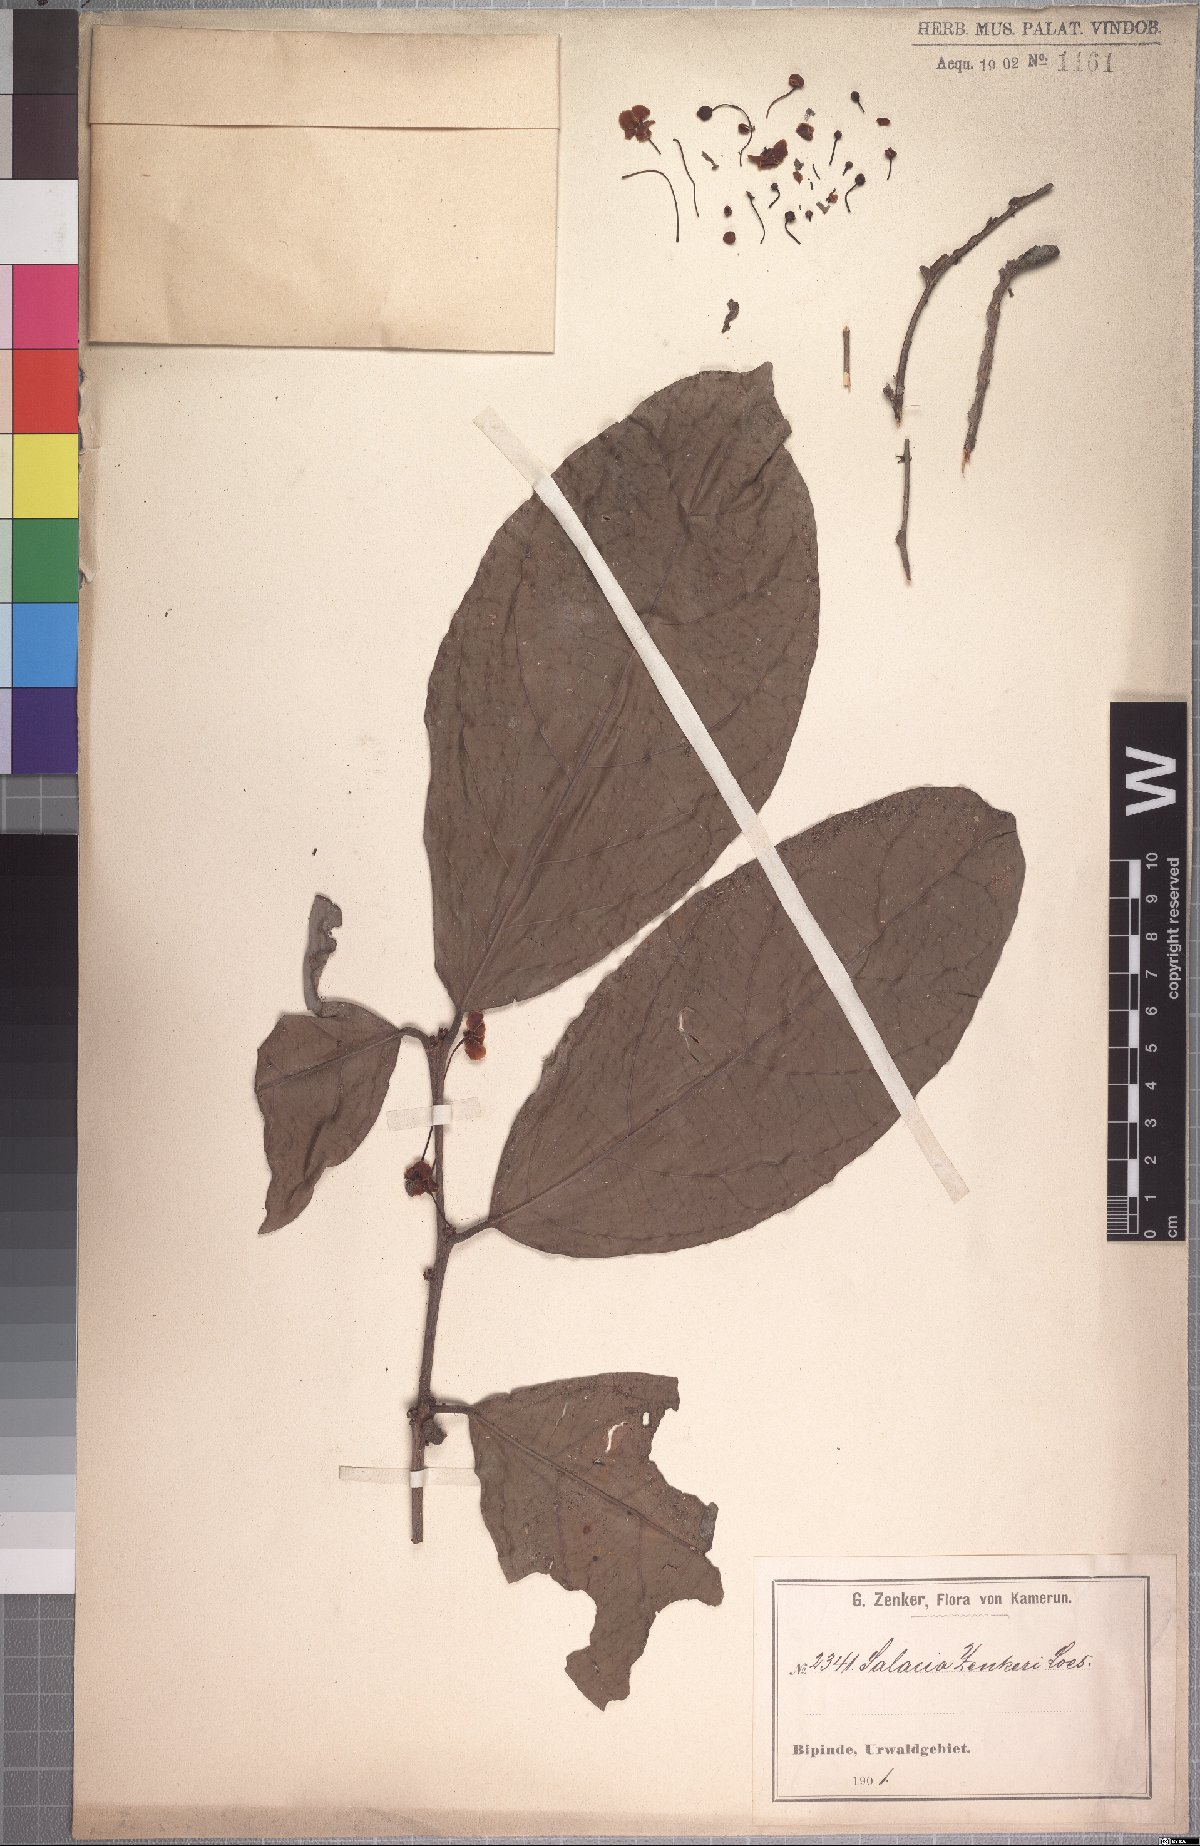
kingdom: Plantae
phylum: Tracheophyta
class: Magnoliopsida
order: Celastrales
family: Celastraceae
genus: Salacia
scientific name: Salacia zenkeri
